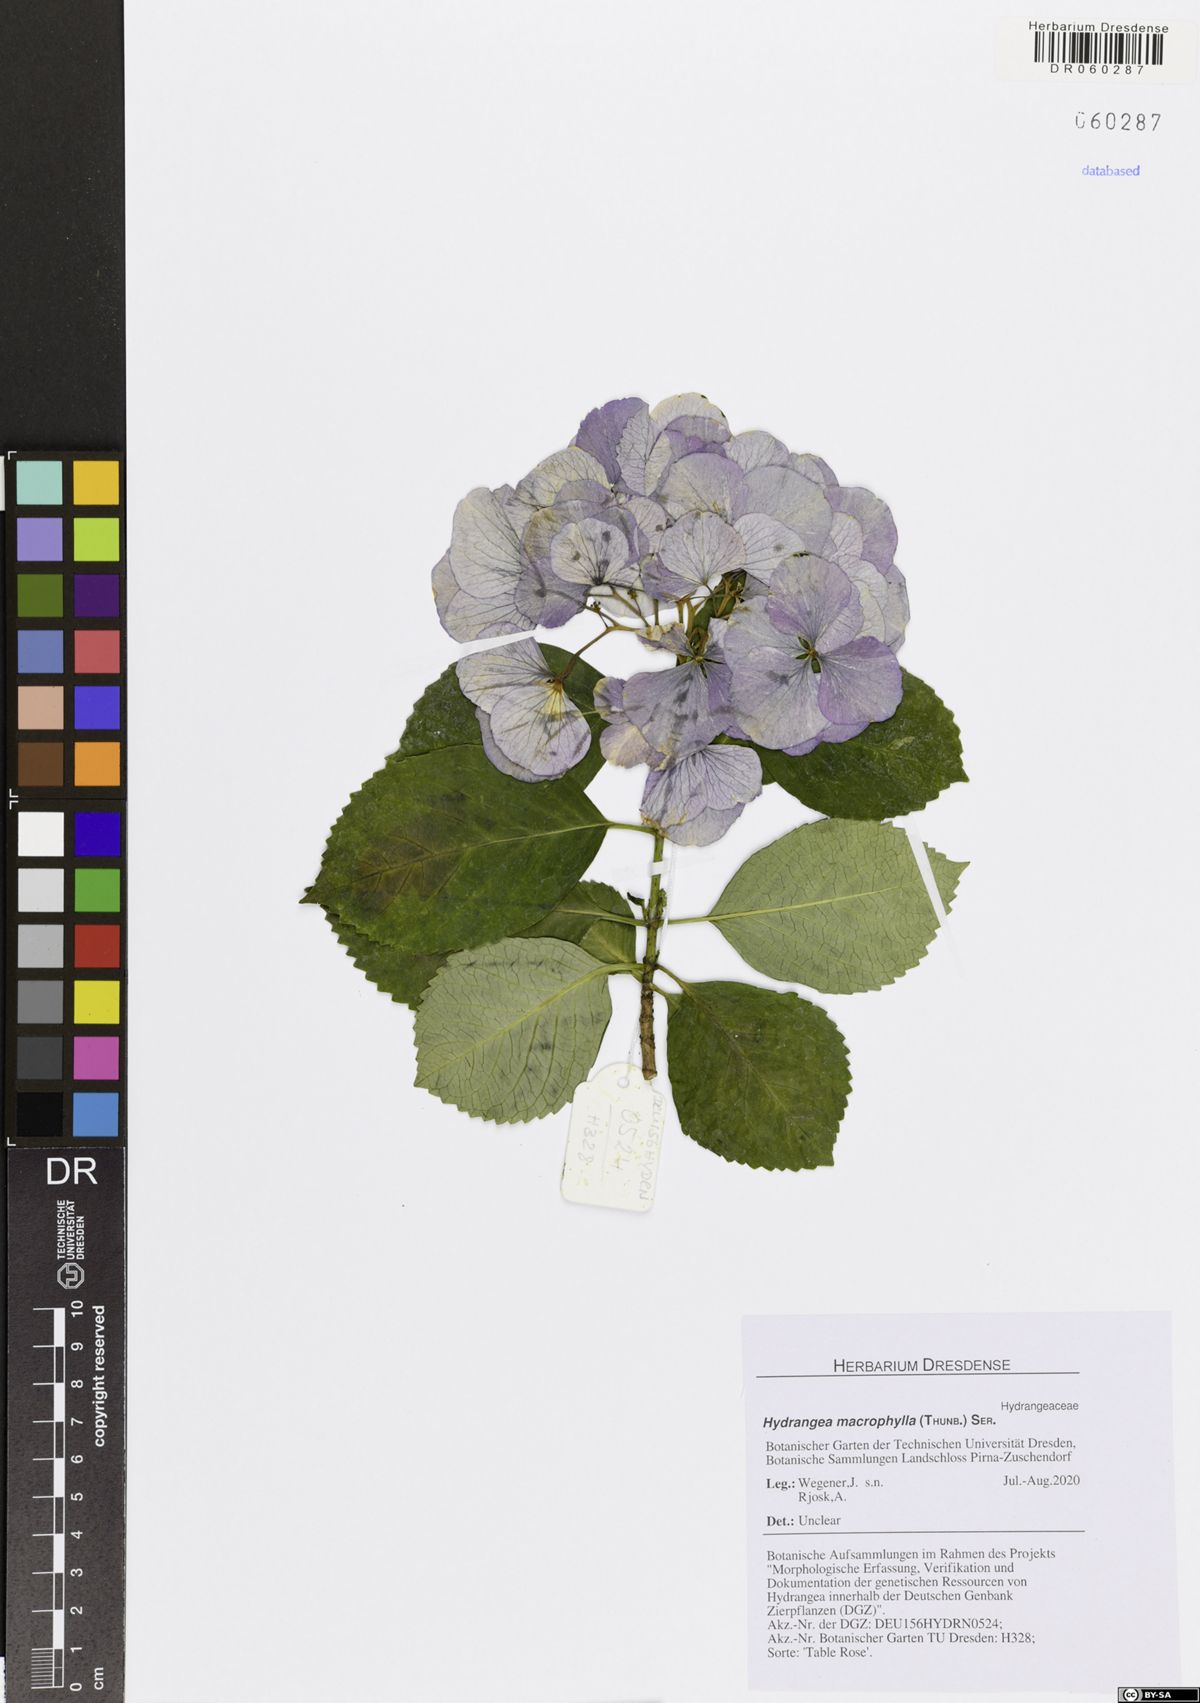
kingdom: Plantae
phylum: Tracheophyta
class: Magnoliopsida
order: Cornales
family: Hydrangeaceae
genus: Hydrangea
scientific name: Hydrangea macrophylla
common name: Hydrangea
